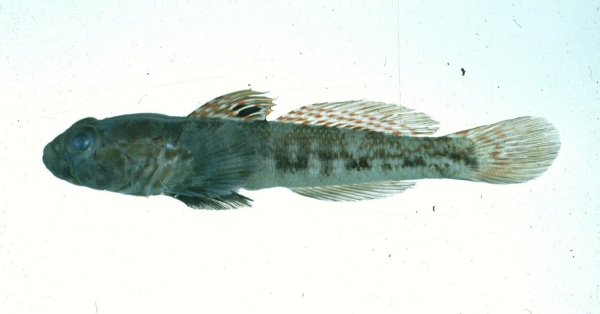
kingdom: Animalia
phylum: Chordata
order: Perciformes
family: Gobiidae
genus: Caffrogobius
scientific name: Caffrogobius agulhensis
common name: Agulhas goby
